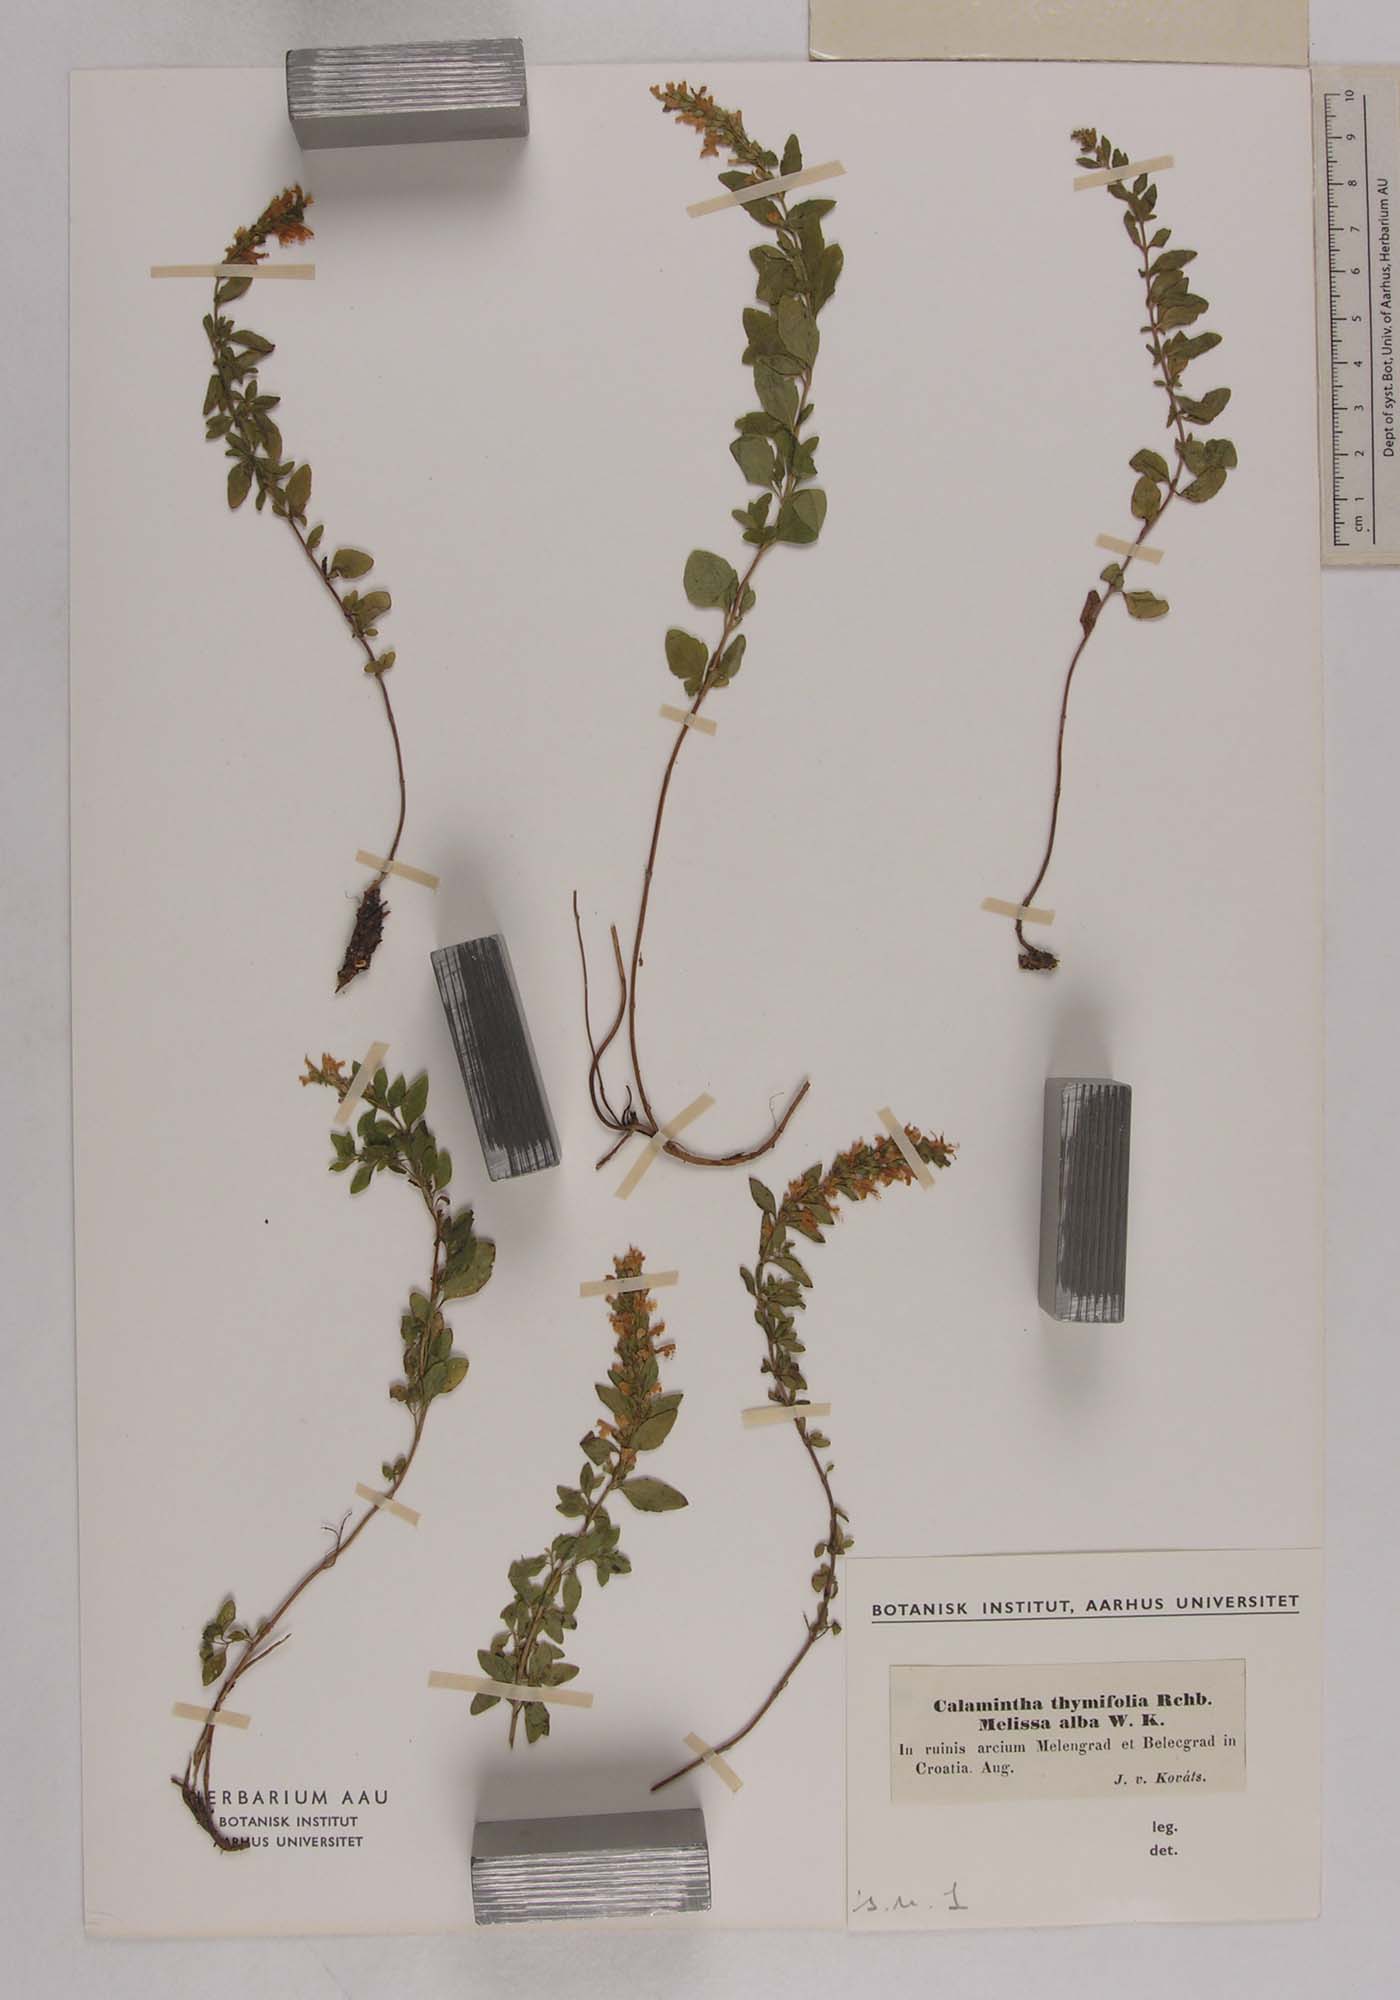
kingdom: Plantae
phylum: Tracheophyta
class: Magnoliopsida
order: Lamiales
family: Lamiaceae
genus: Clinopodium
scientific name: Clinopodium album
